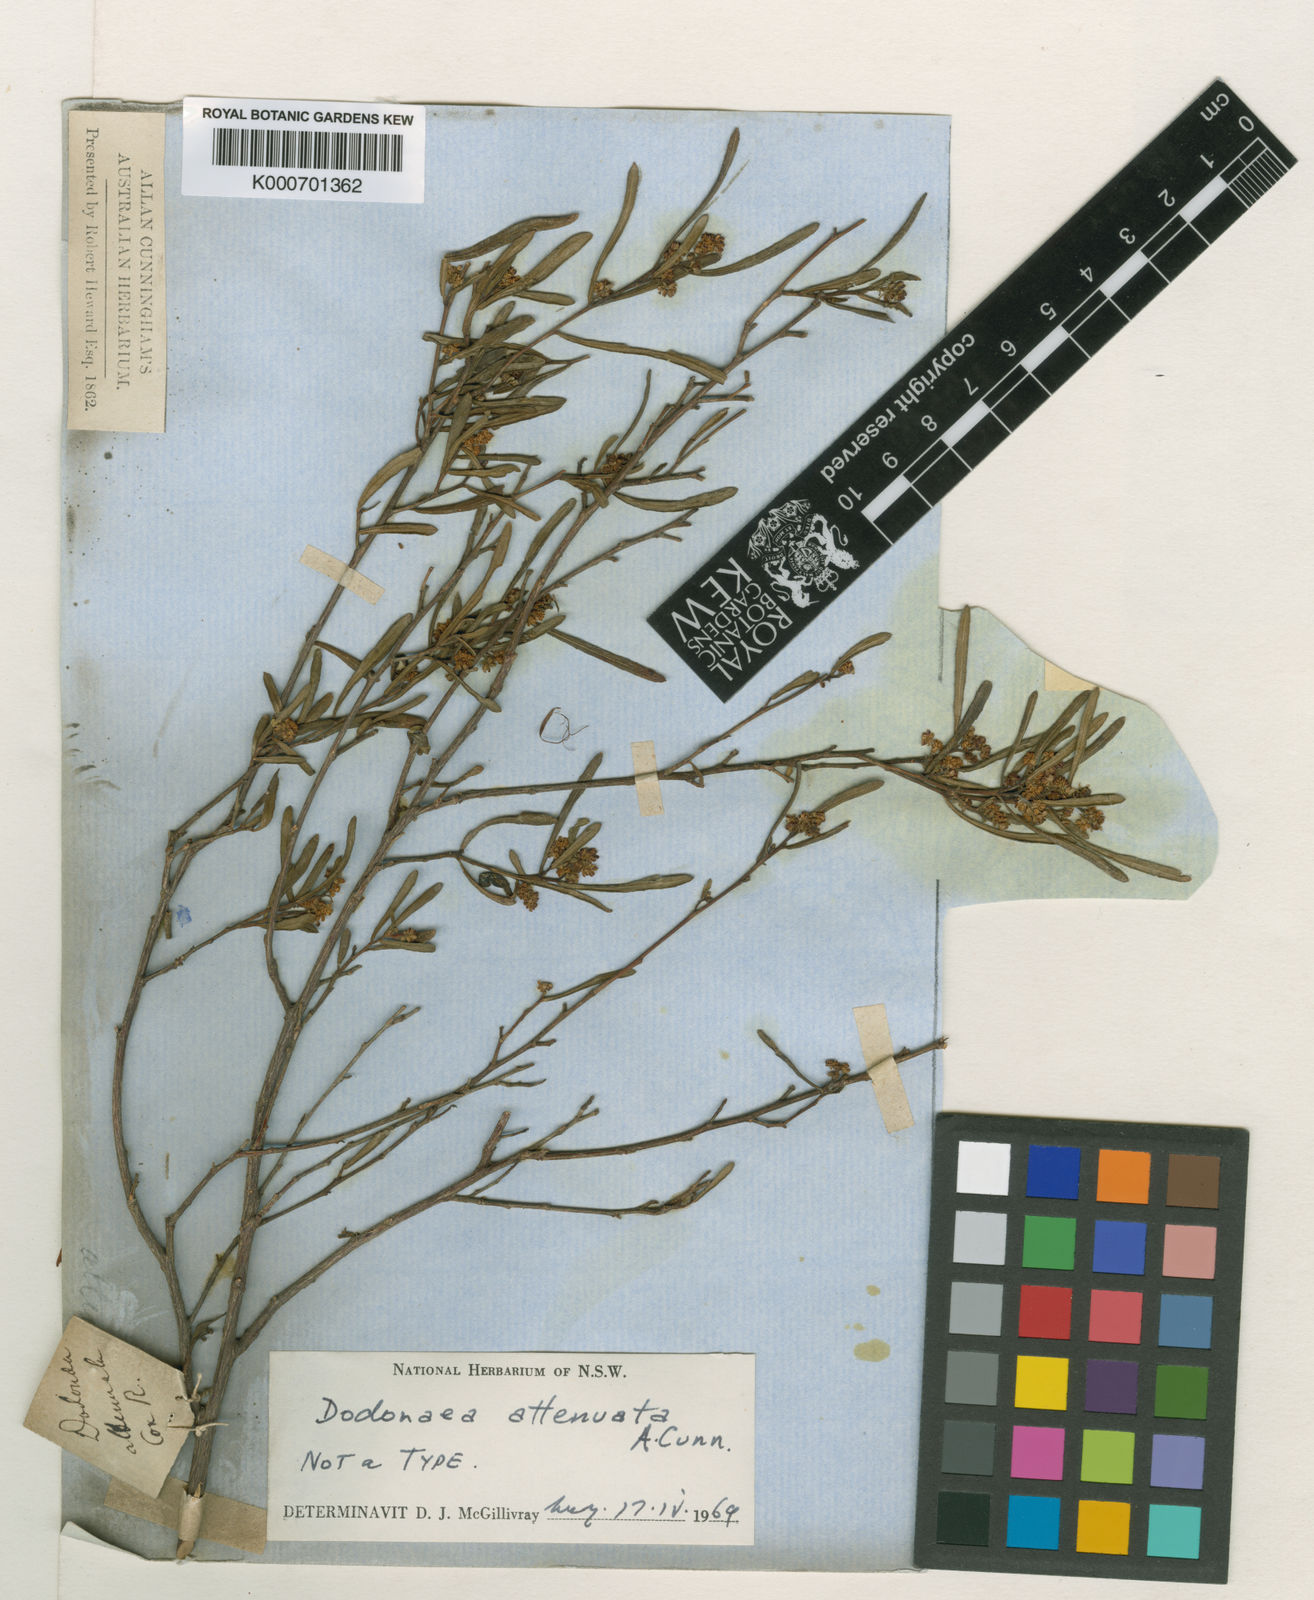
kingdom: Plantae
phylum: Tracheophyta
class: Magnoliopsida
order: Sapindales
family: Sapindaceae
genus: Dodonaea
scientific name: Dodonaea viscosa
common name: Hopbush
